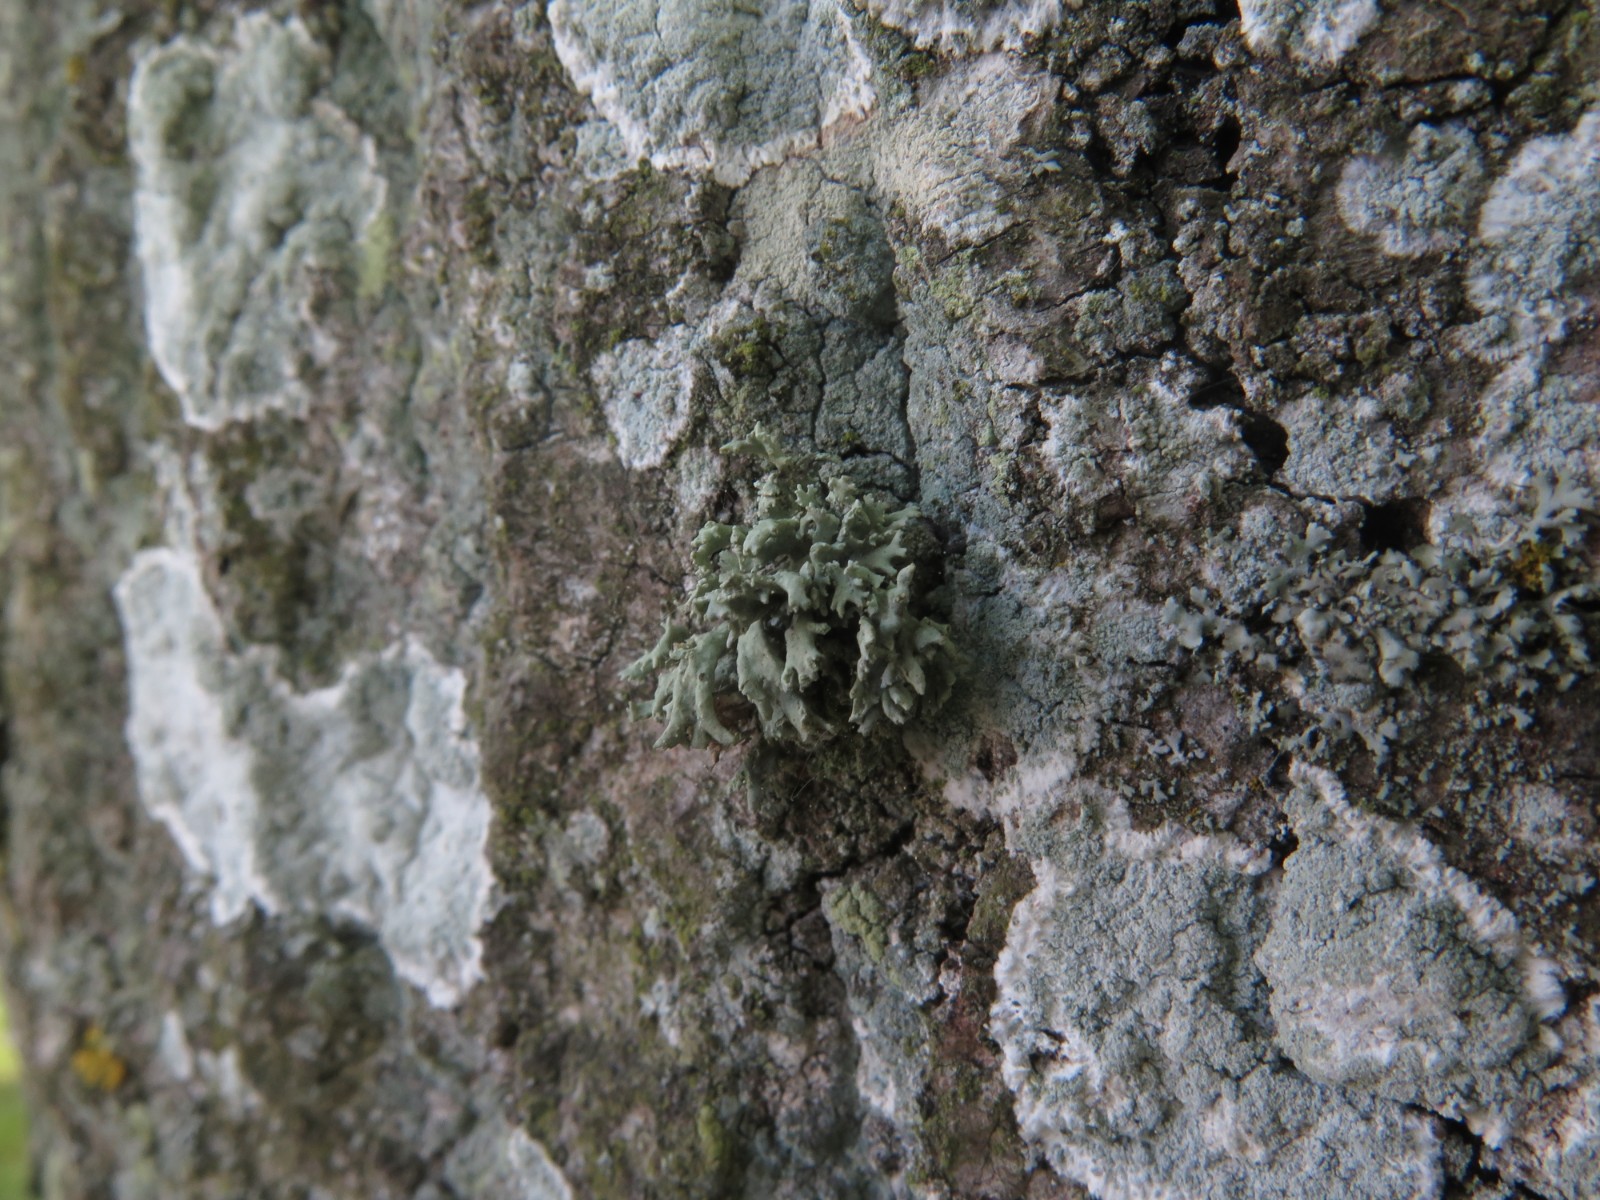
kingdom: Fungi
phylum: Ascomycota
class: Lecanoromycetes
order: Lecanorales
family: Parmeliaceae
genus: Evernia
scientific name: Evernia prunastri
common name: almindelig slåenlav
